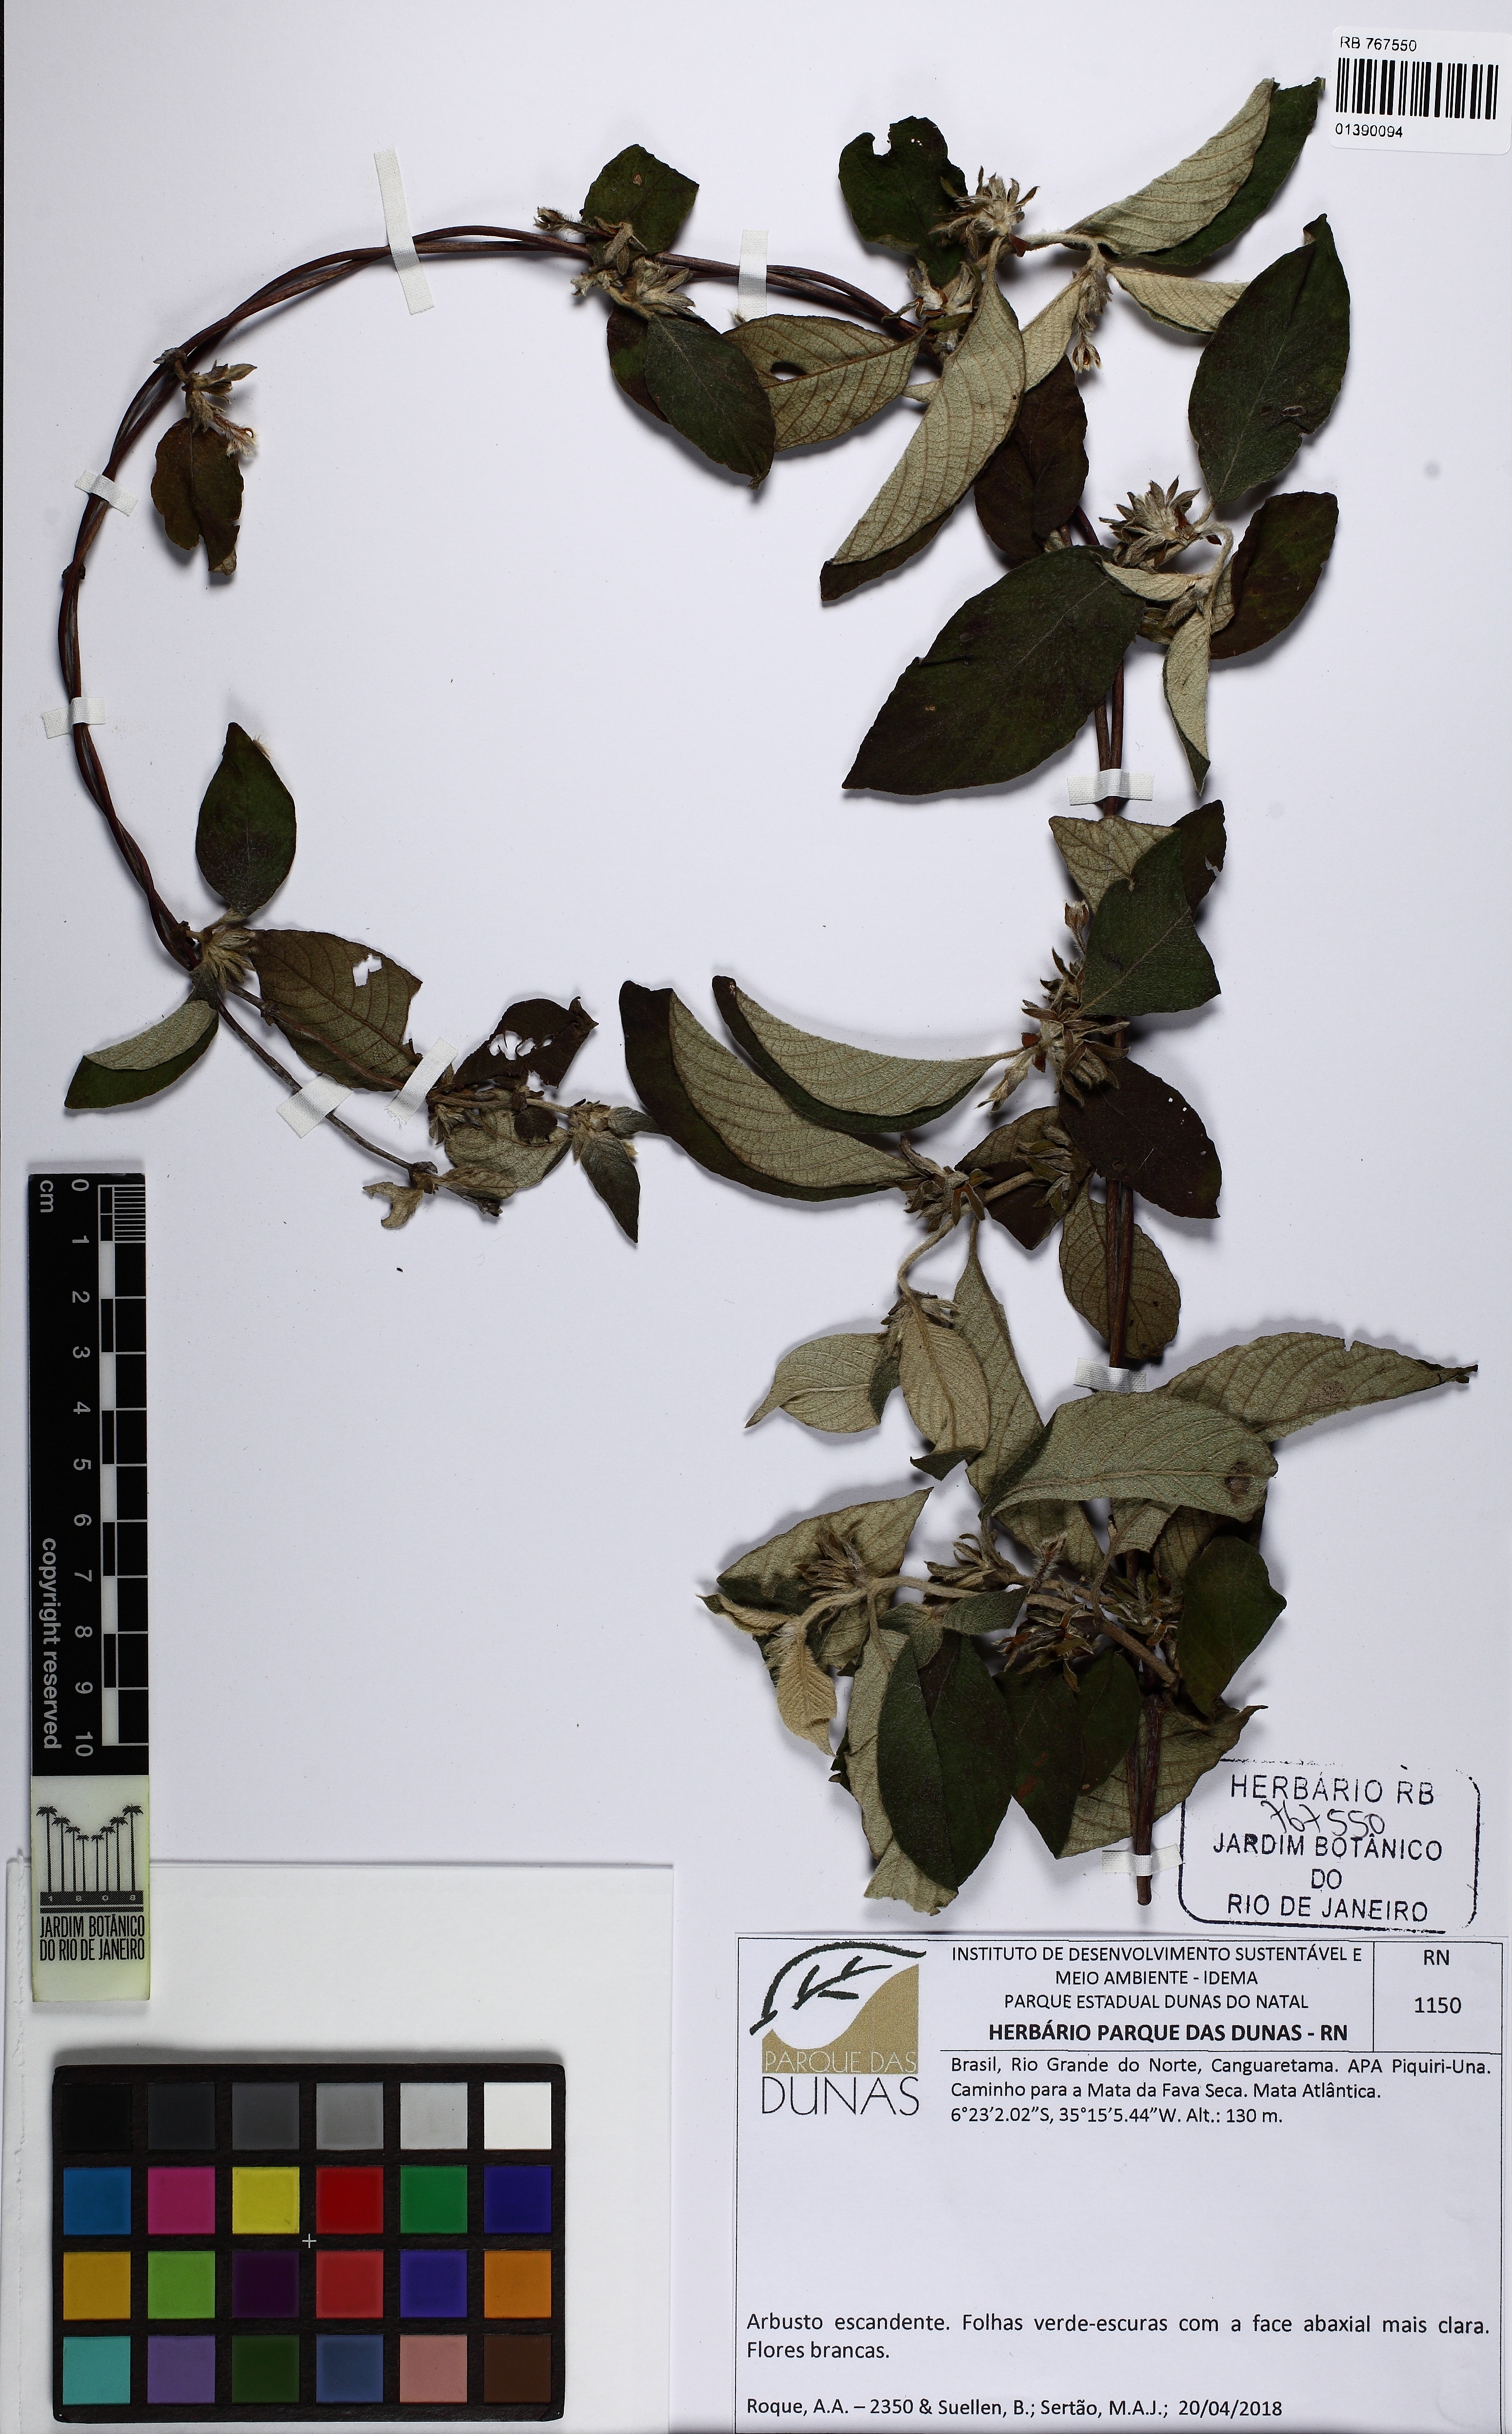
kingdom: Plantae
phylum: Tracheophyta
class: Magnoliopsida
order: Gentianales
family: Rubiaceae
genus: Sabicea
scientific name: Sabicea
